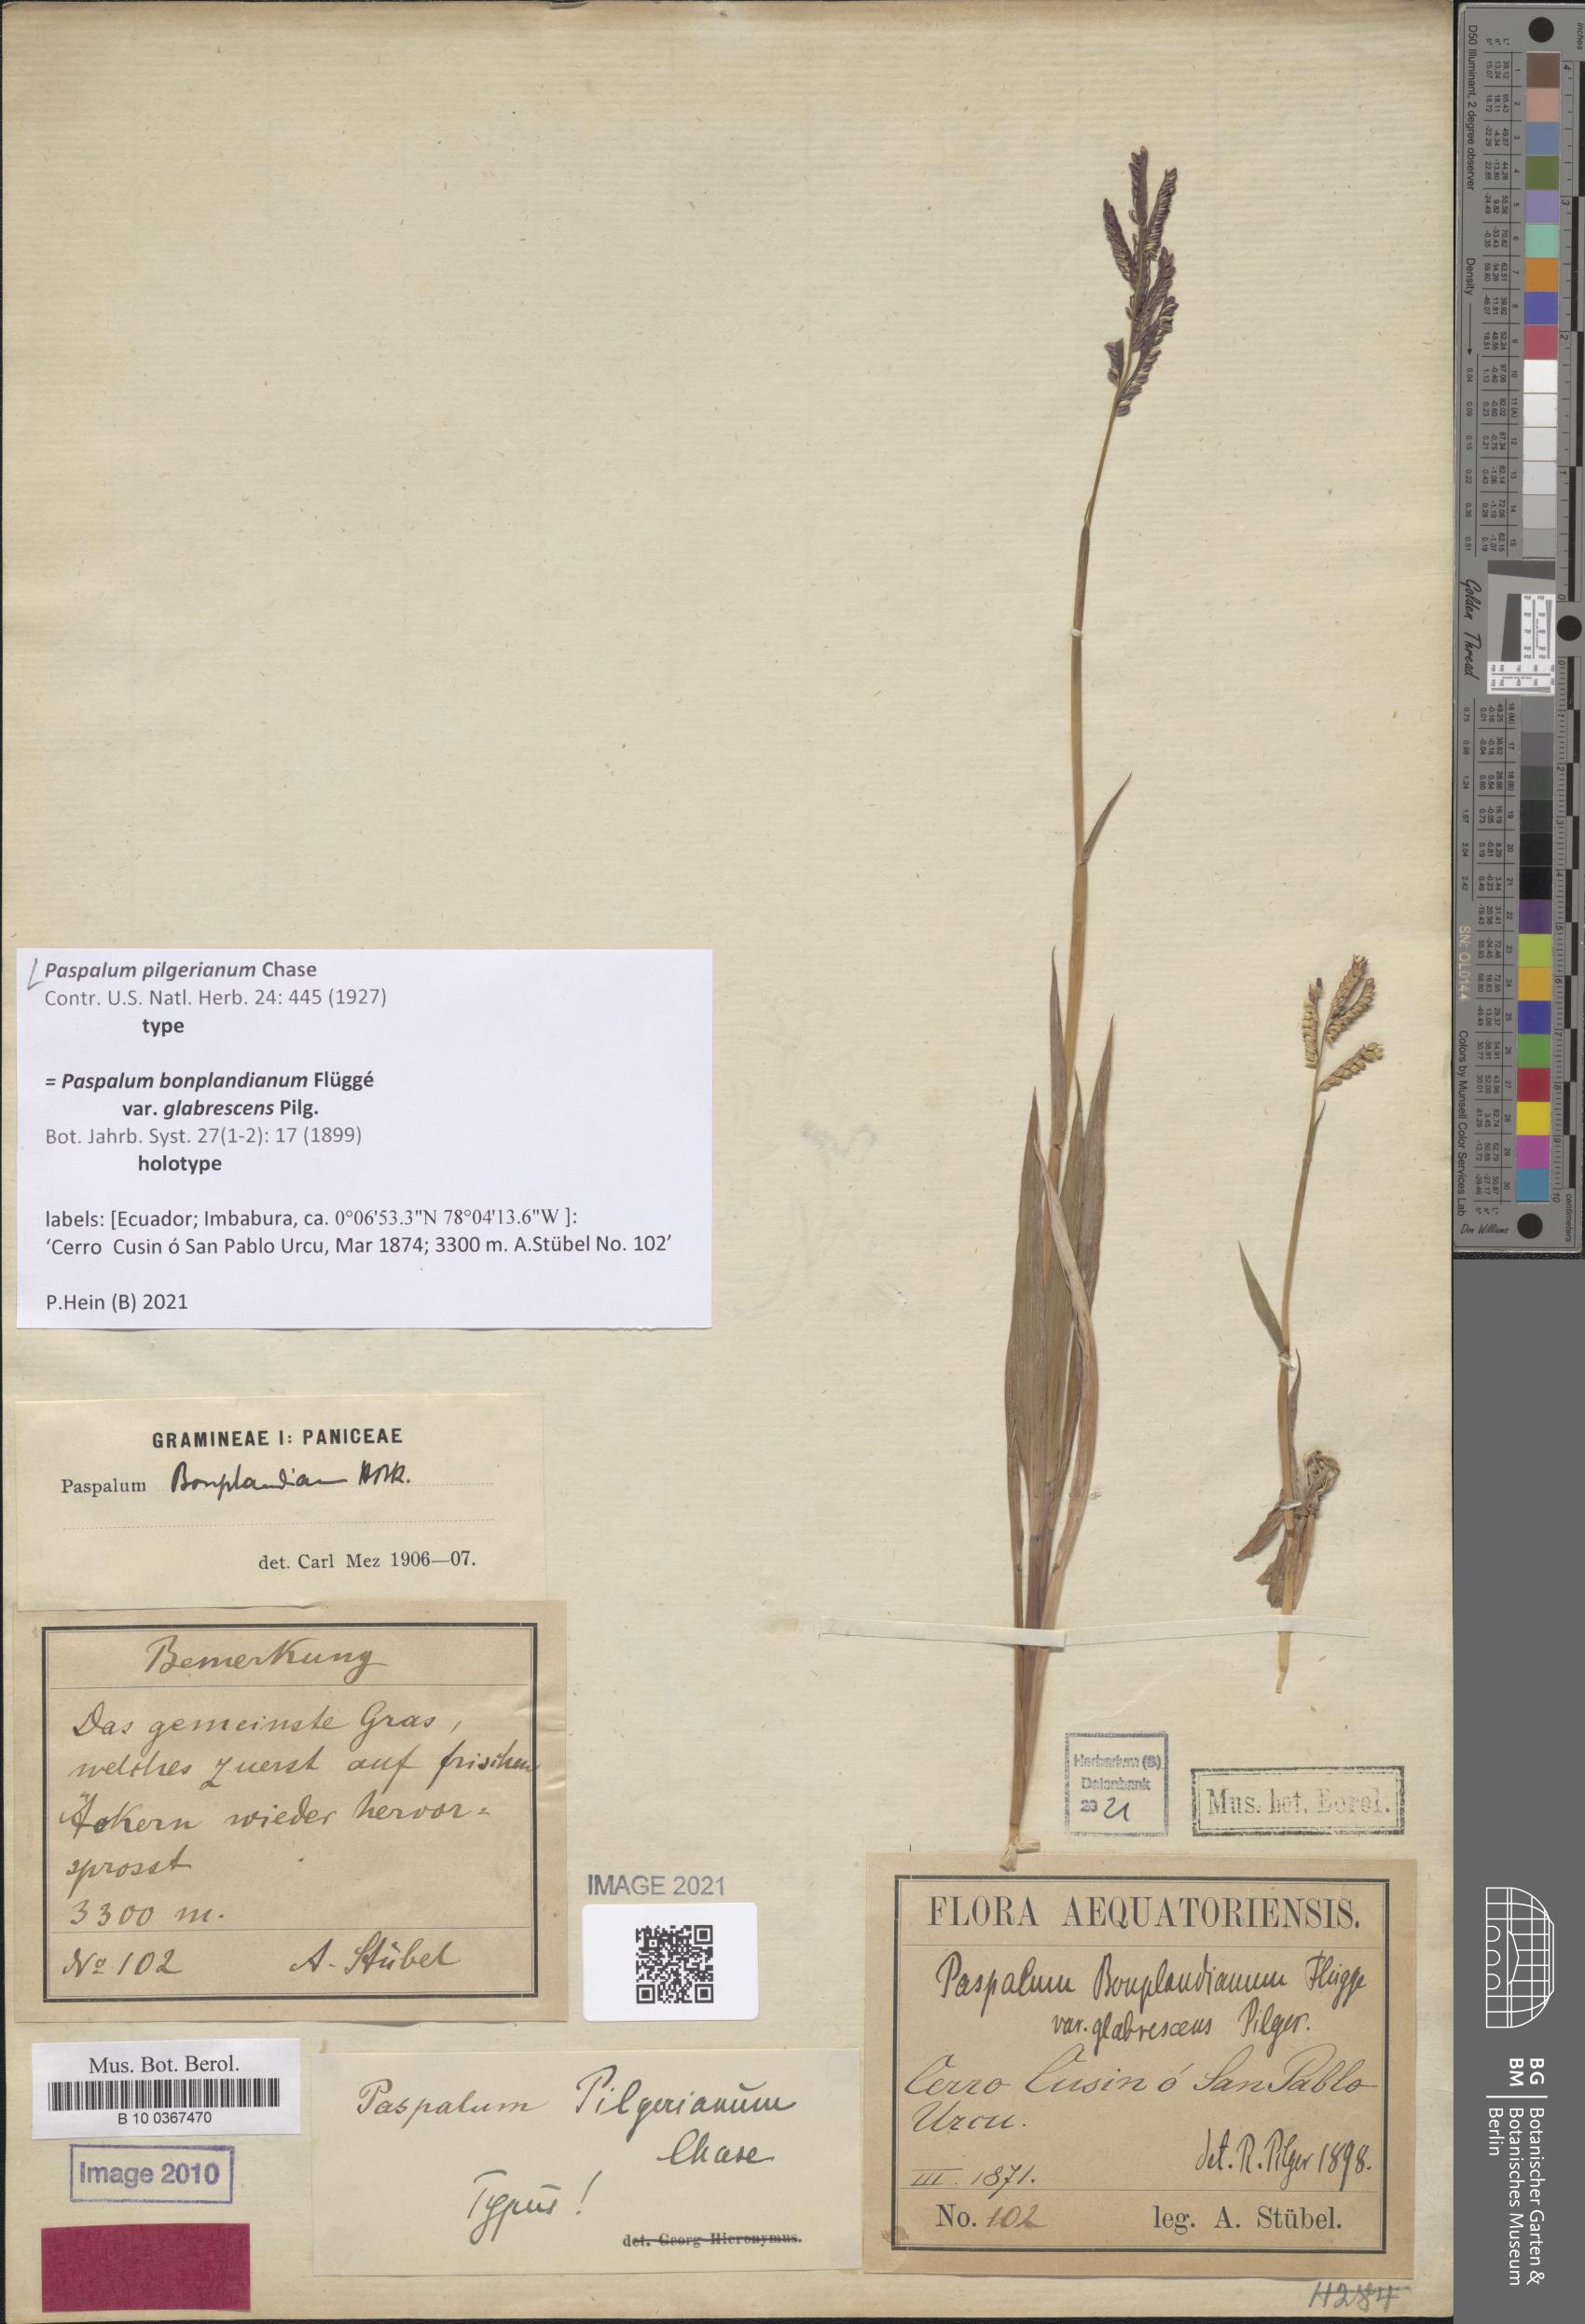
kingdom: Plantae
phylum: Tracheophyta
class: Liliopsida
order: Poales
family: Poaceae
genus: Paspalum
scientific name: Paspalum pilgerianum
